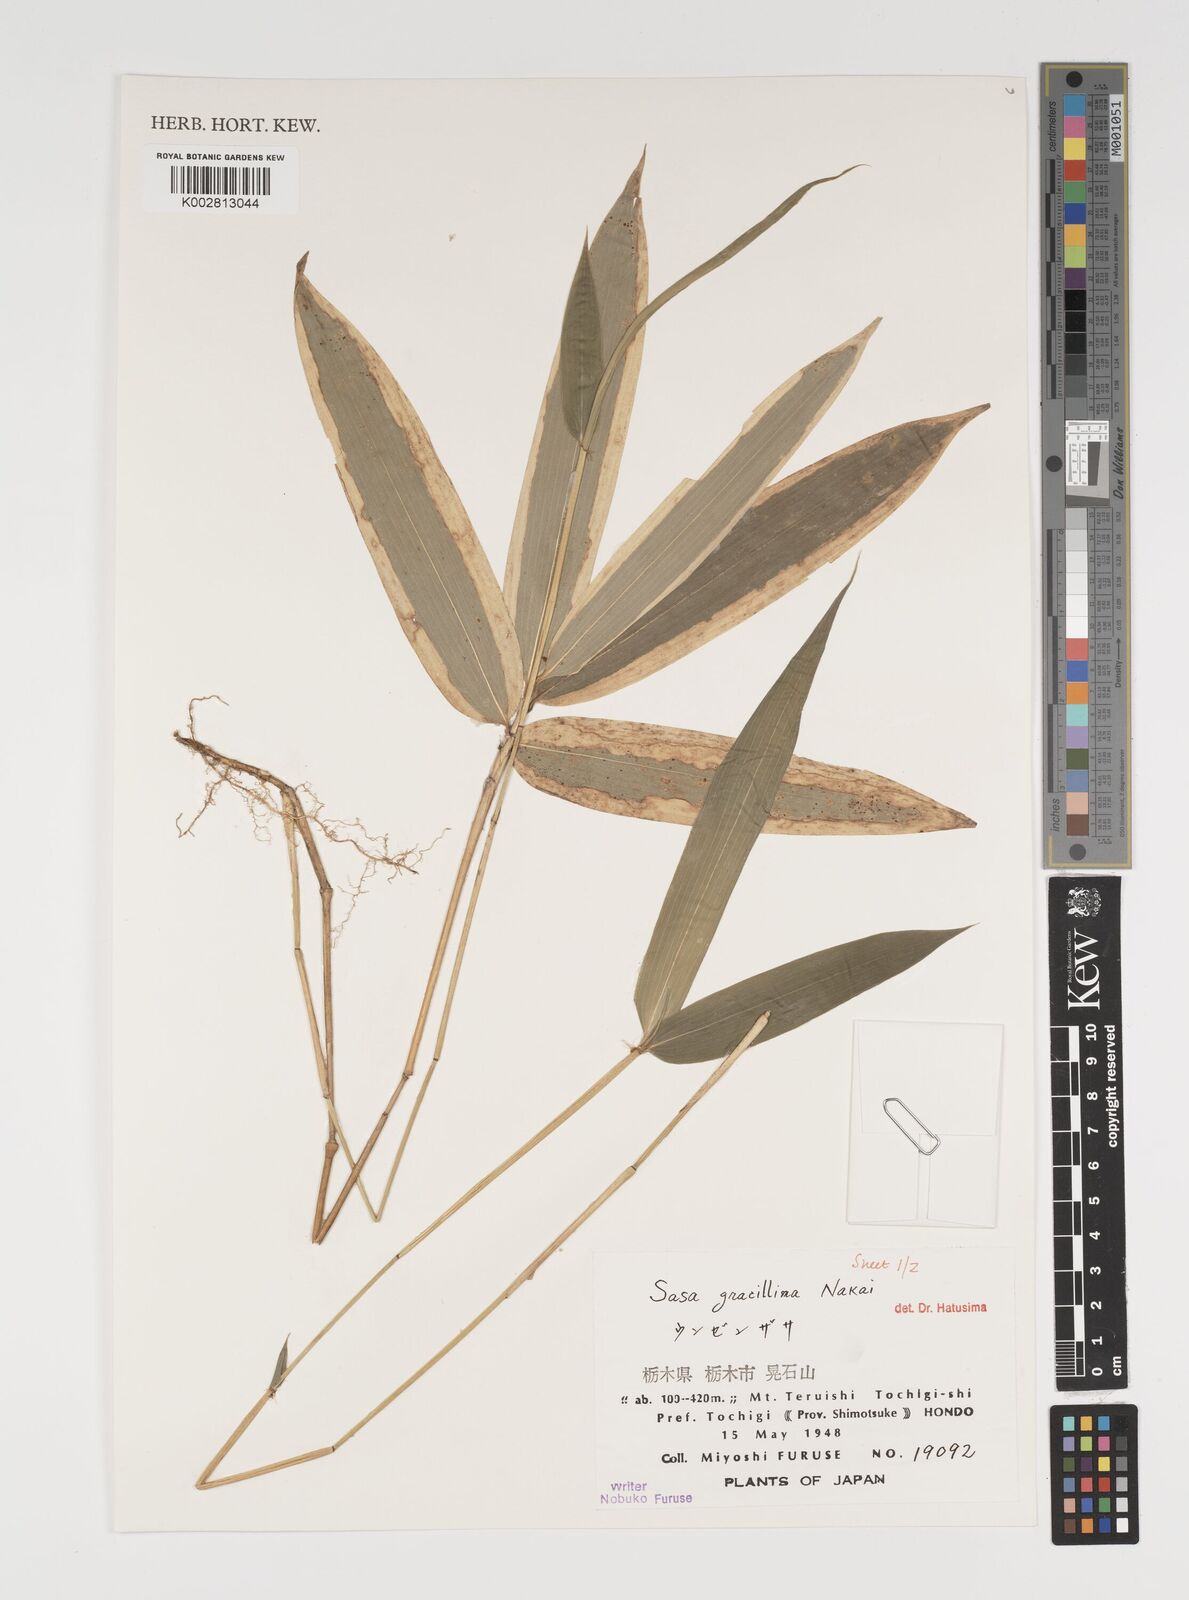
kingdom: Plantae
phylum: Tracheophyta
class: Liliopsida
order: Poales
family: Poaceae
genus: Sasa
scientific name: Sasa gracillima
